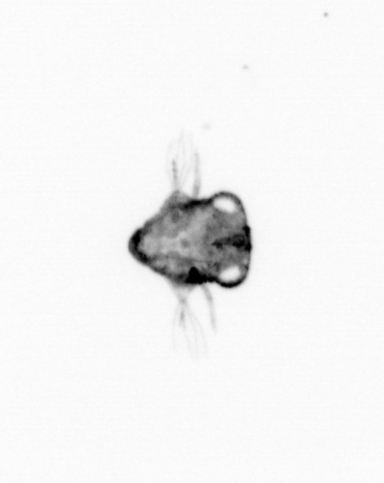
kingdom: Animalia
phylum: Arthropoda
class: Malacostraca
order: Decapoda
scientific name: Decapoda
